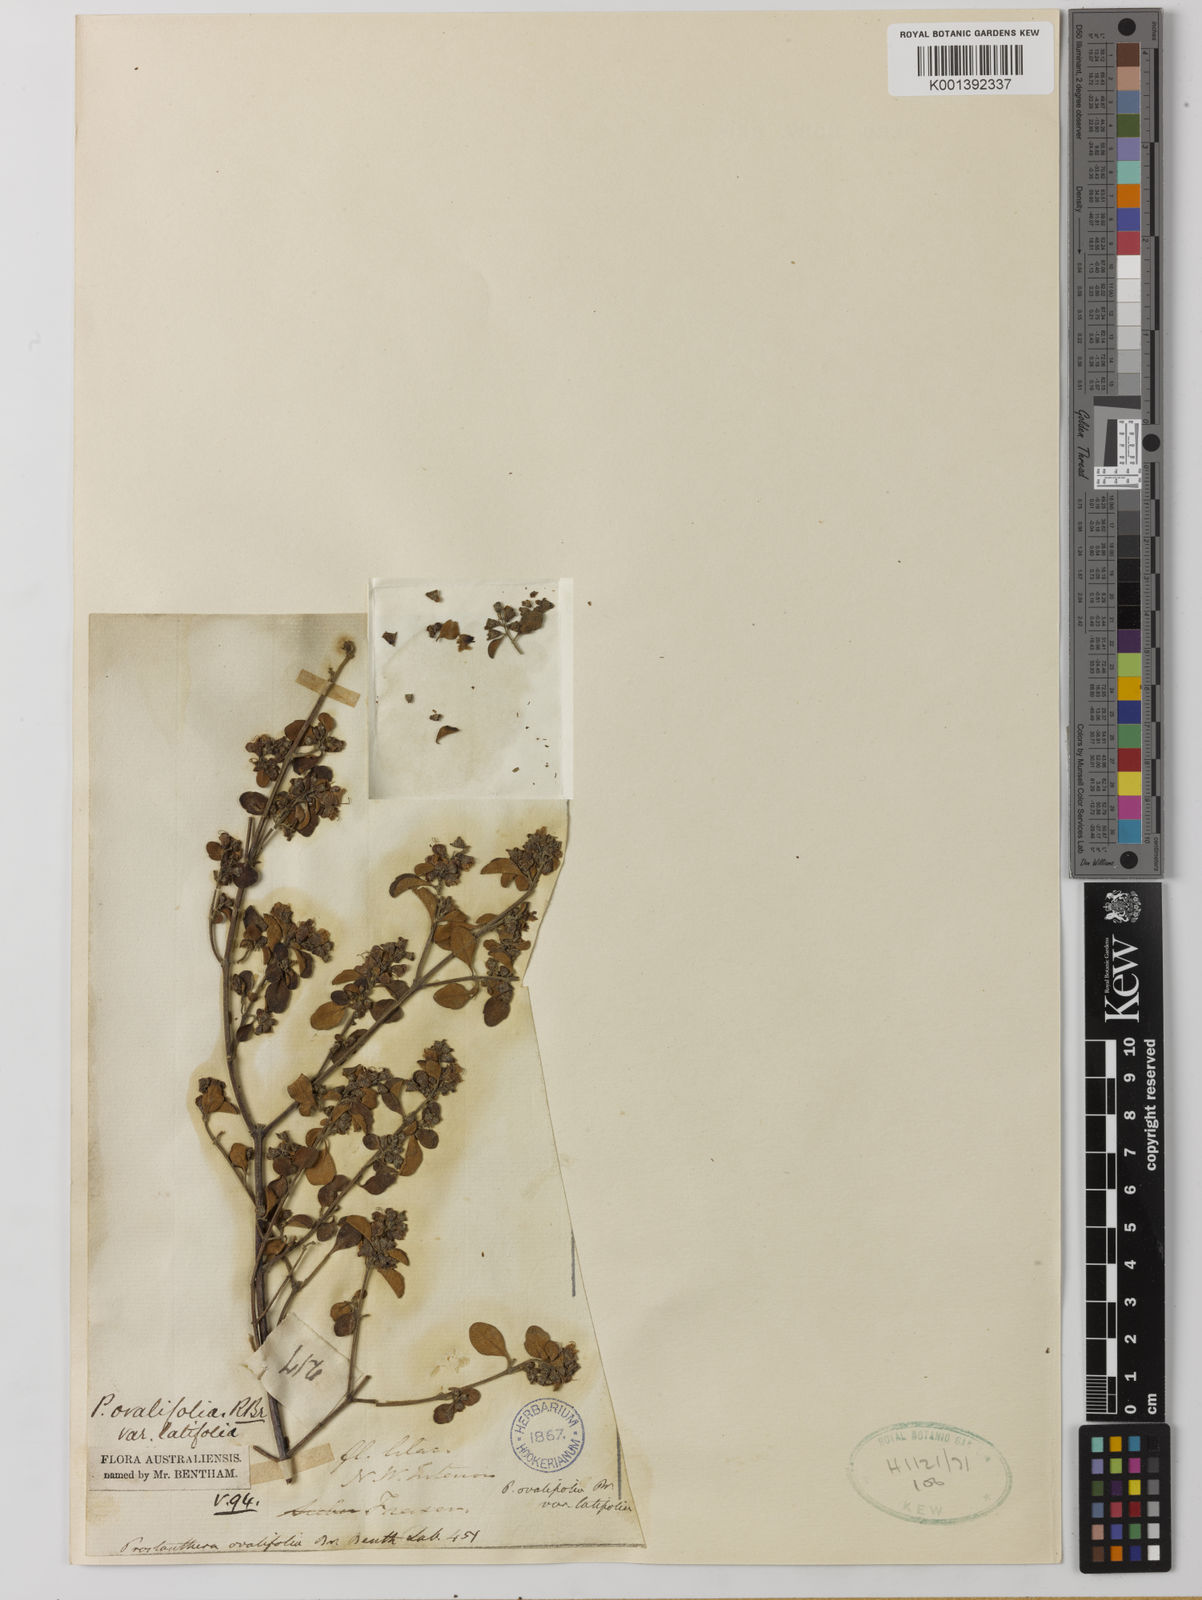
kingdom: Plantae
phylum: Tracheophyta
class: Magnoliopsida
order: Lamiales
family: Lamiaceae
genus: Prostanthera
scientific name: Prostanthera ovalifolia
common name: Purple mintbush
